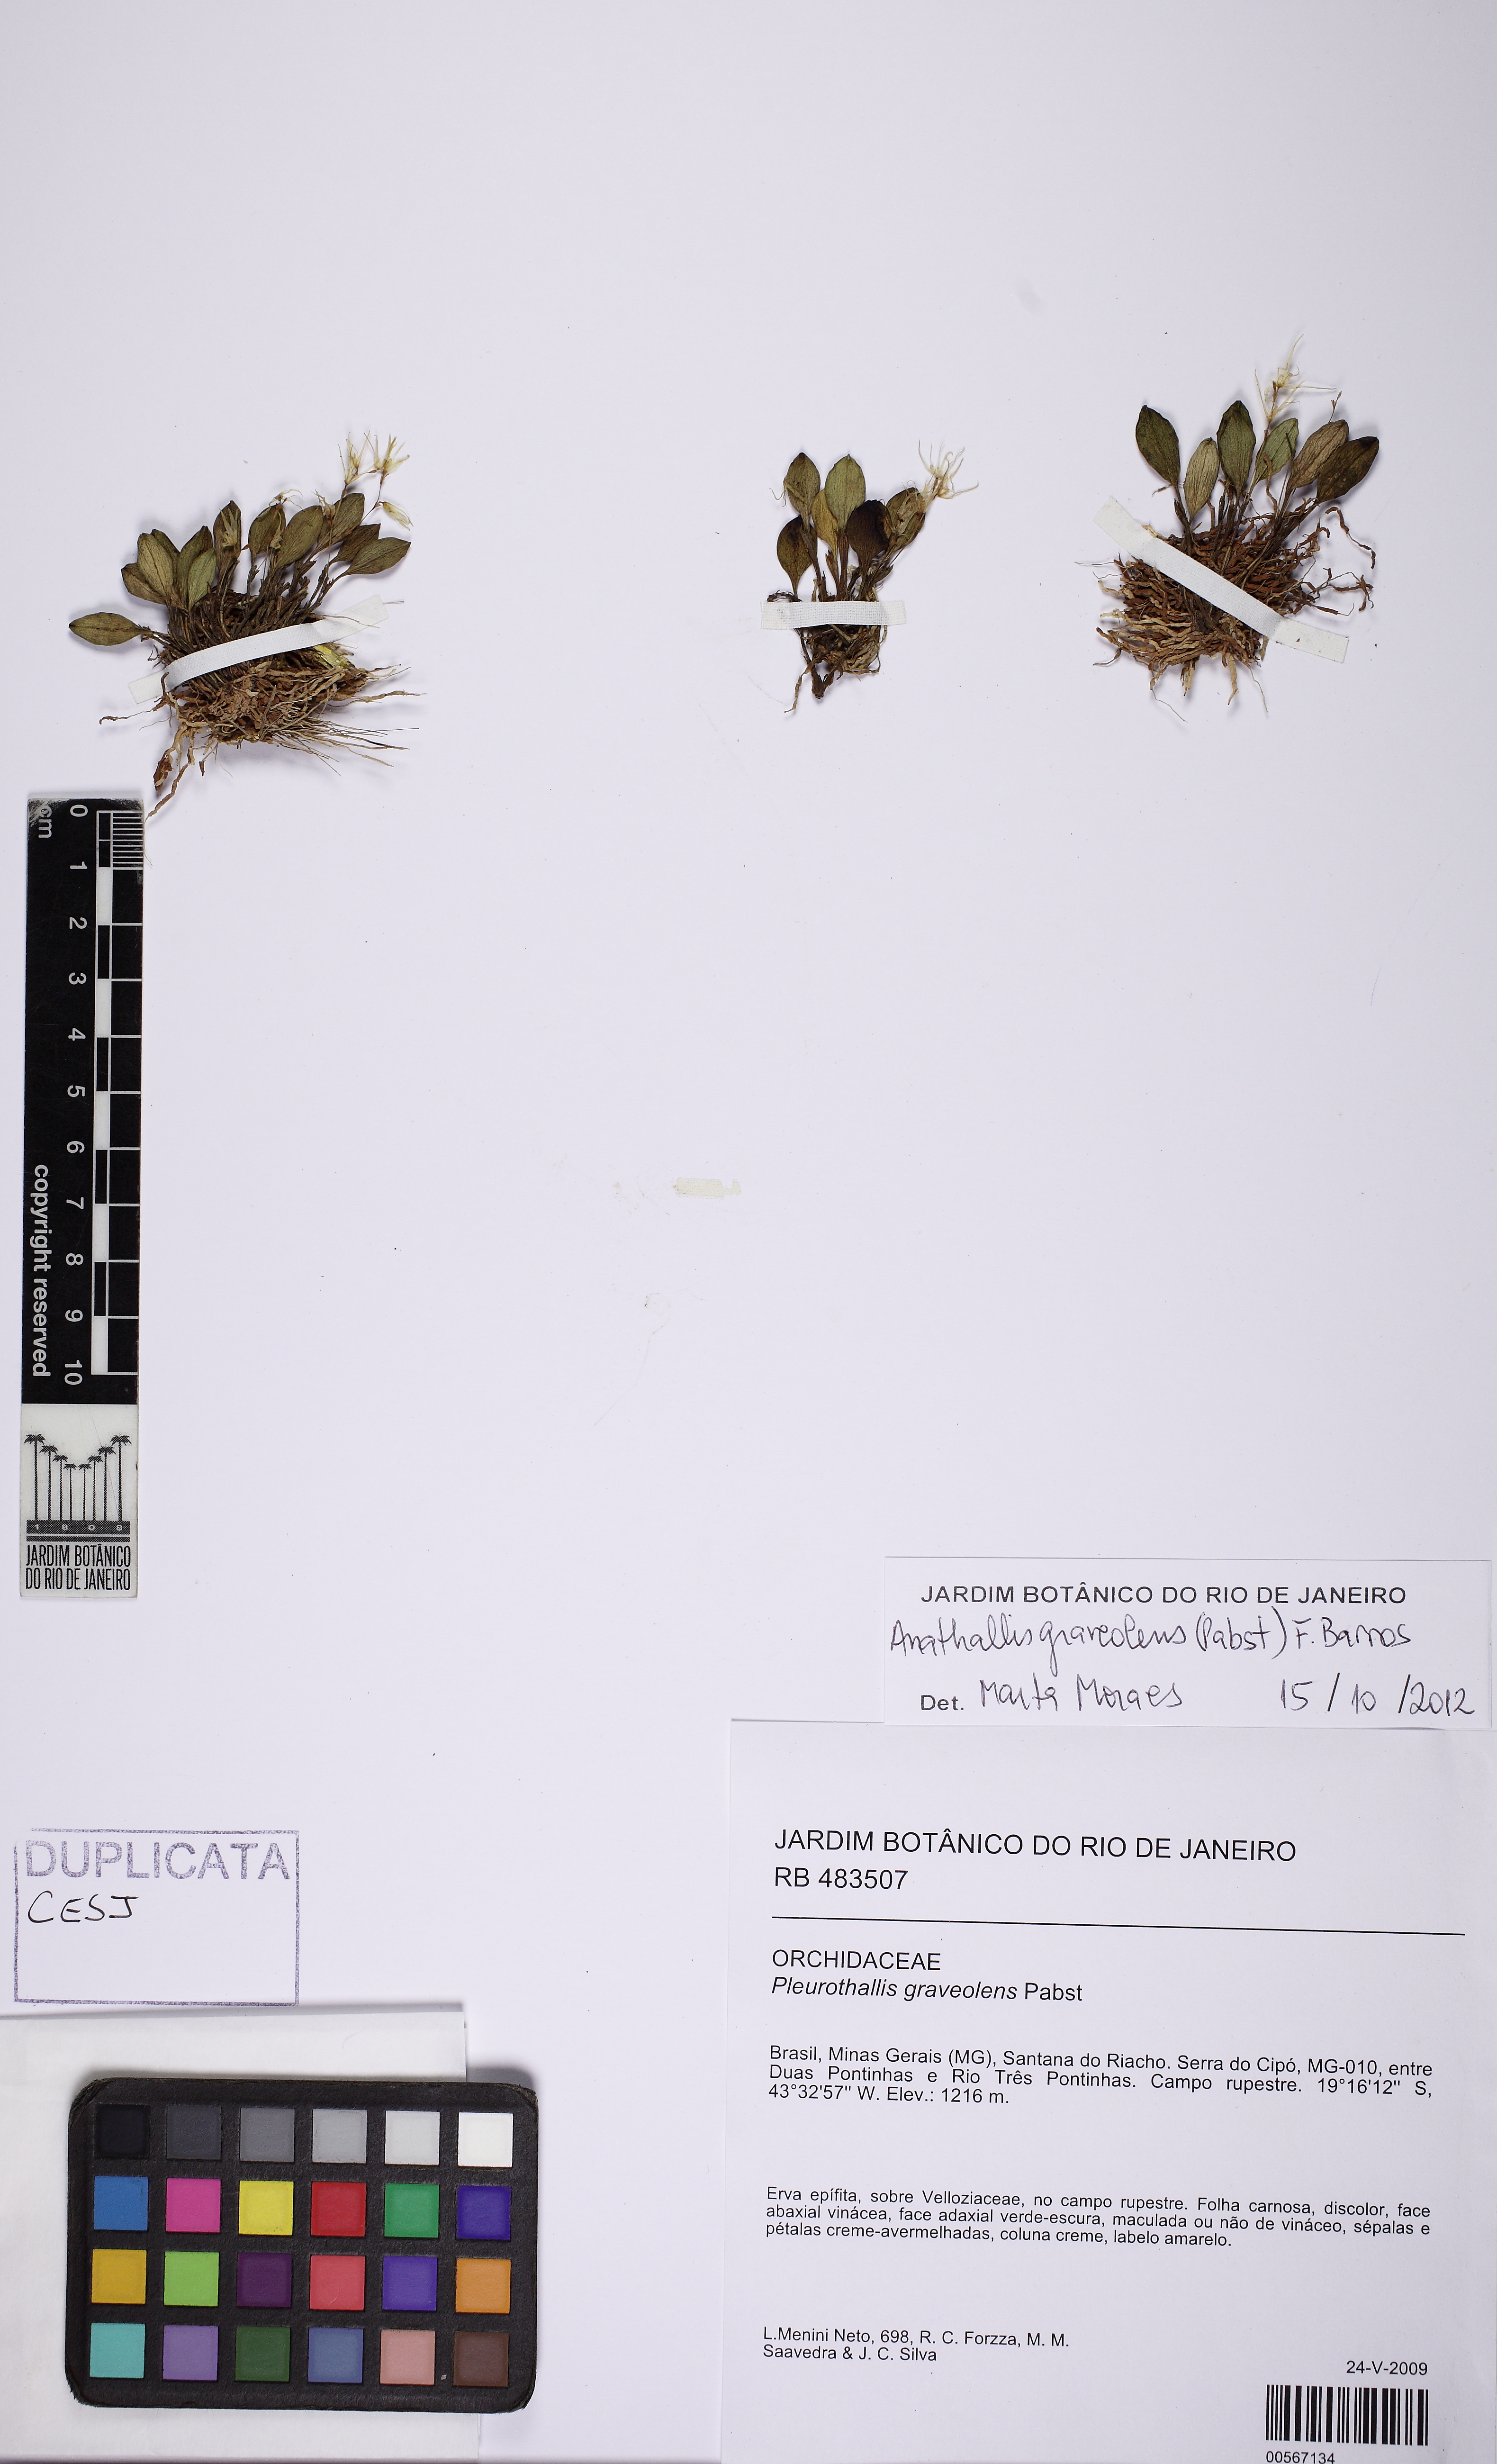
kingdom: Plantae
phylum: Tracheophyta
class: Liliopsida
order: Asparagales
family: Orchidaceae
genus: Anathallis
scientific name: Anathallis graveolens
